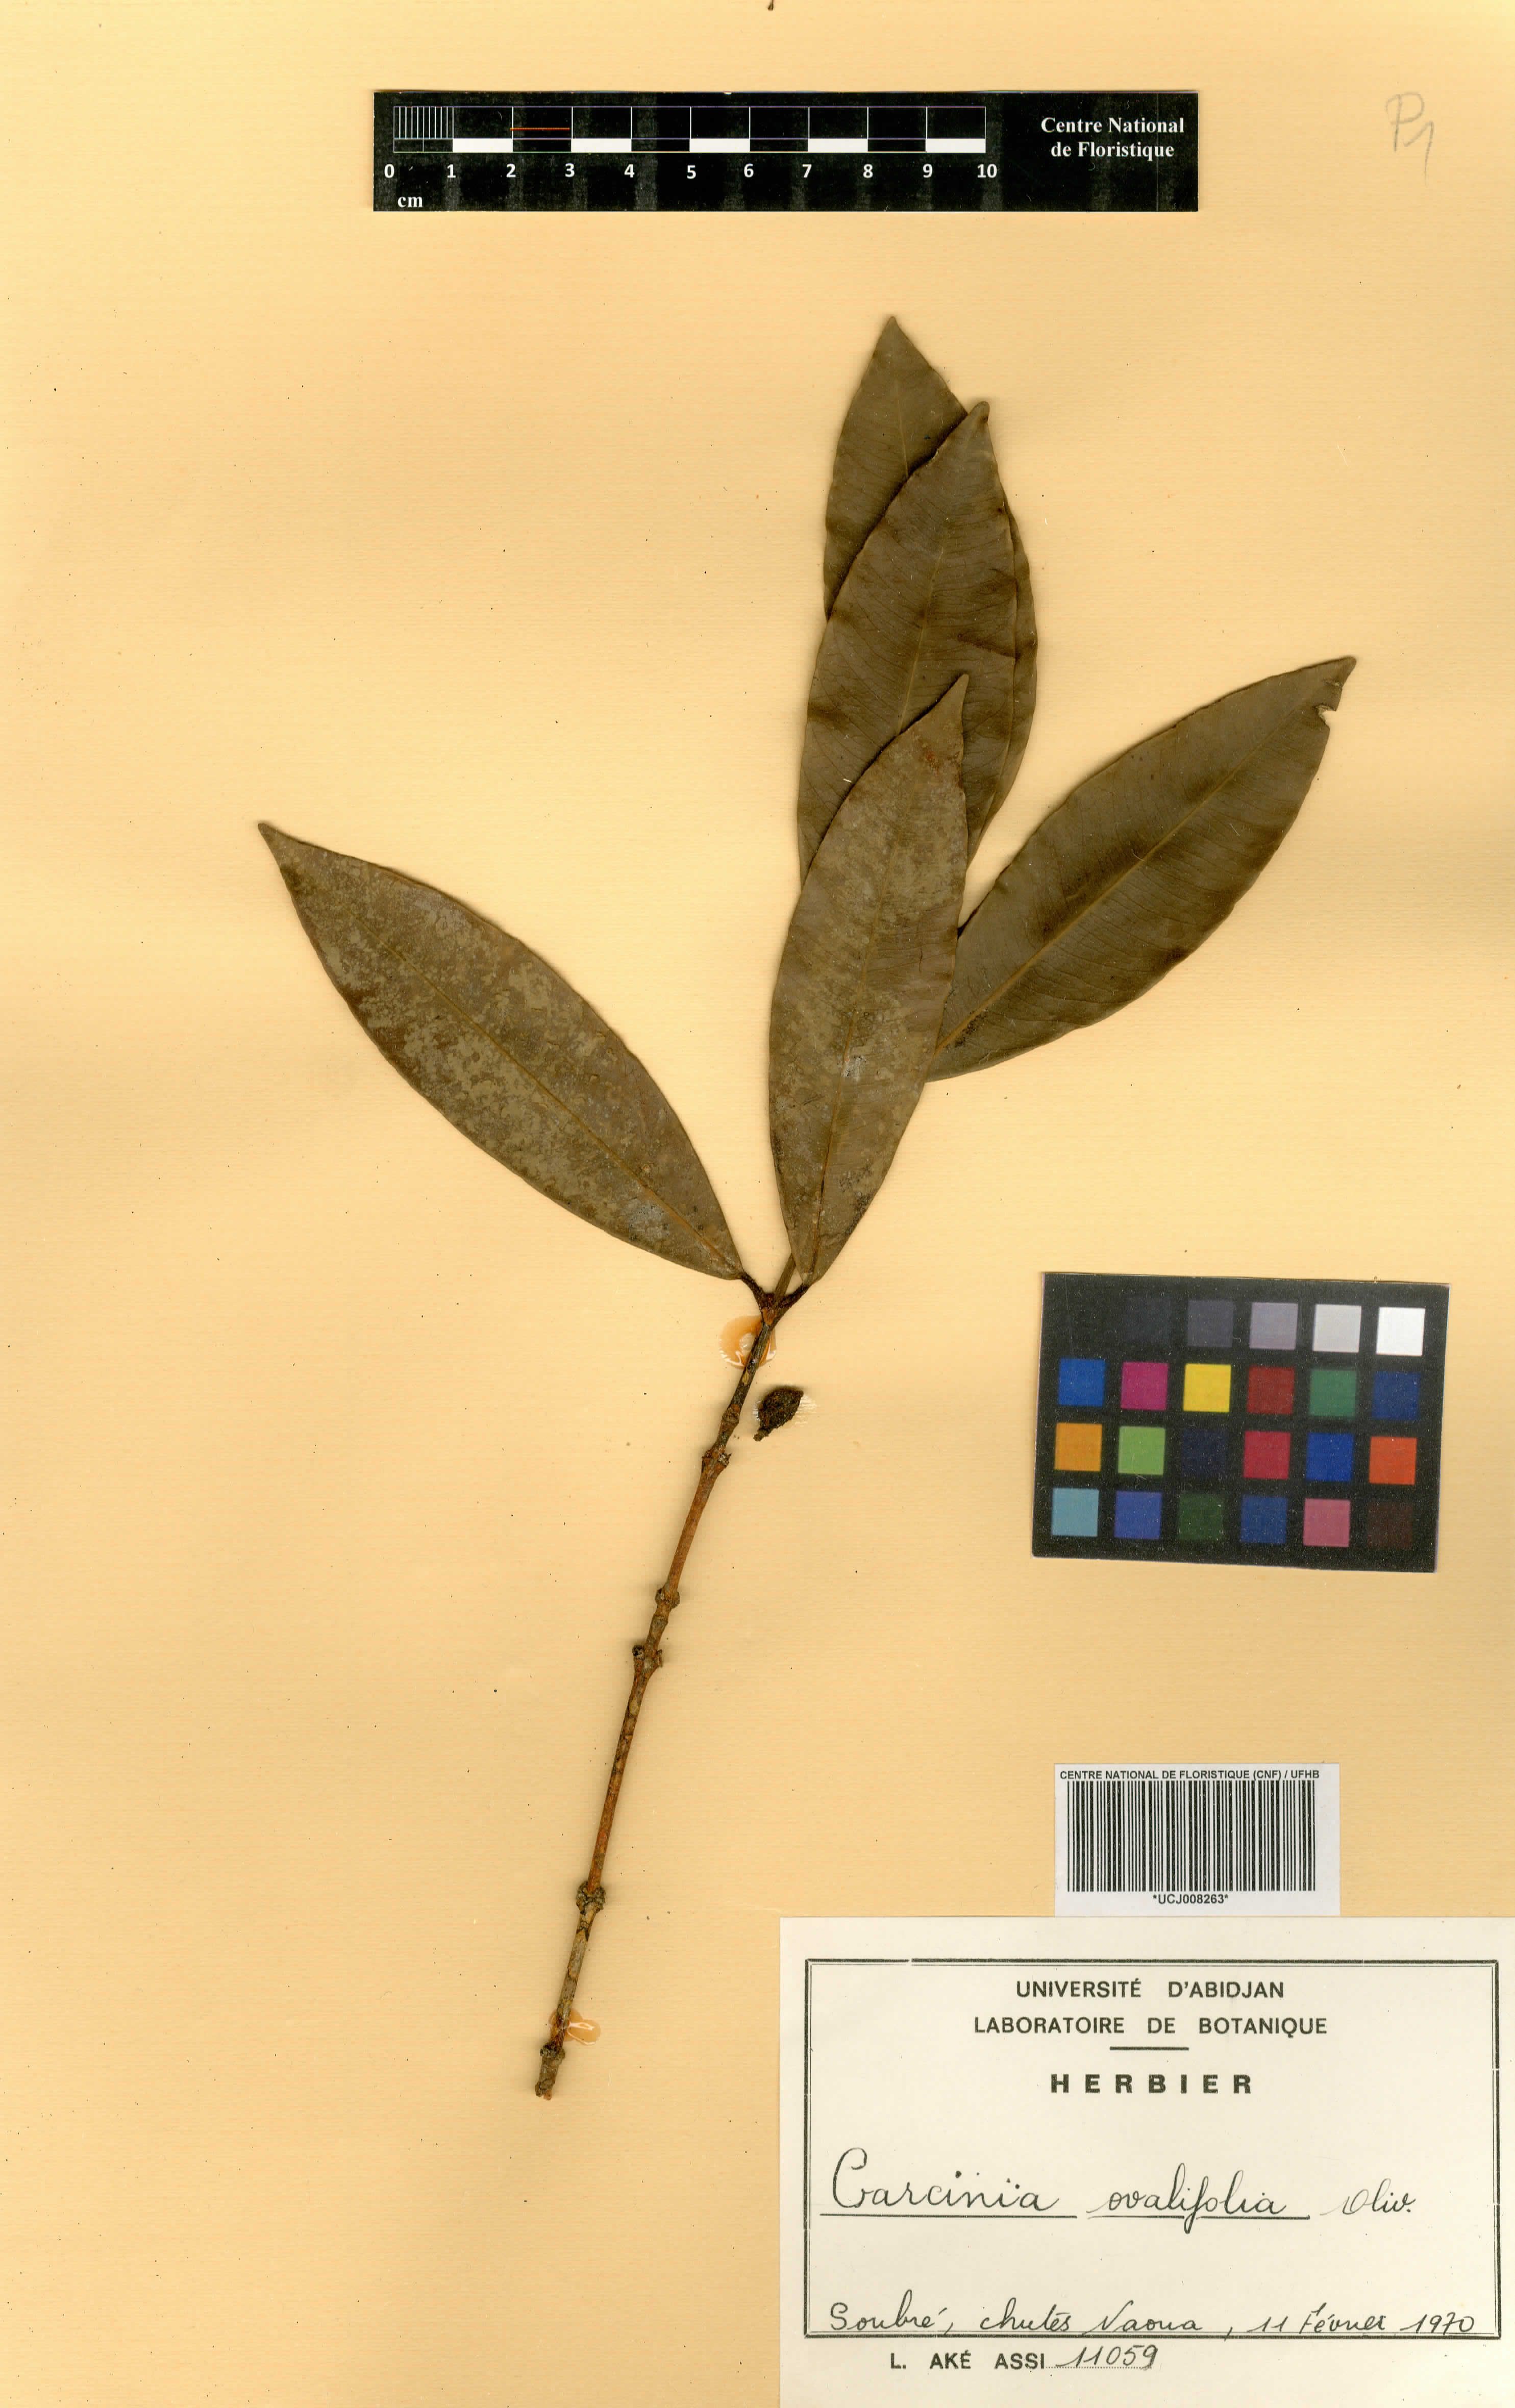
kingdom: Plantae
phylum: Tracheophyta
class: Magnoliopsida
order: Malpighiales
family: Clusiaceae
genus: Garcinia
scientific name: Garcinia ovalifolia
